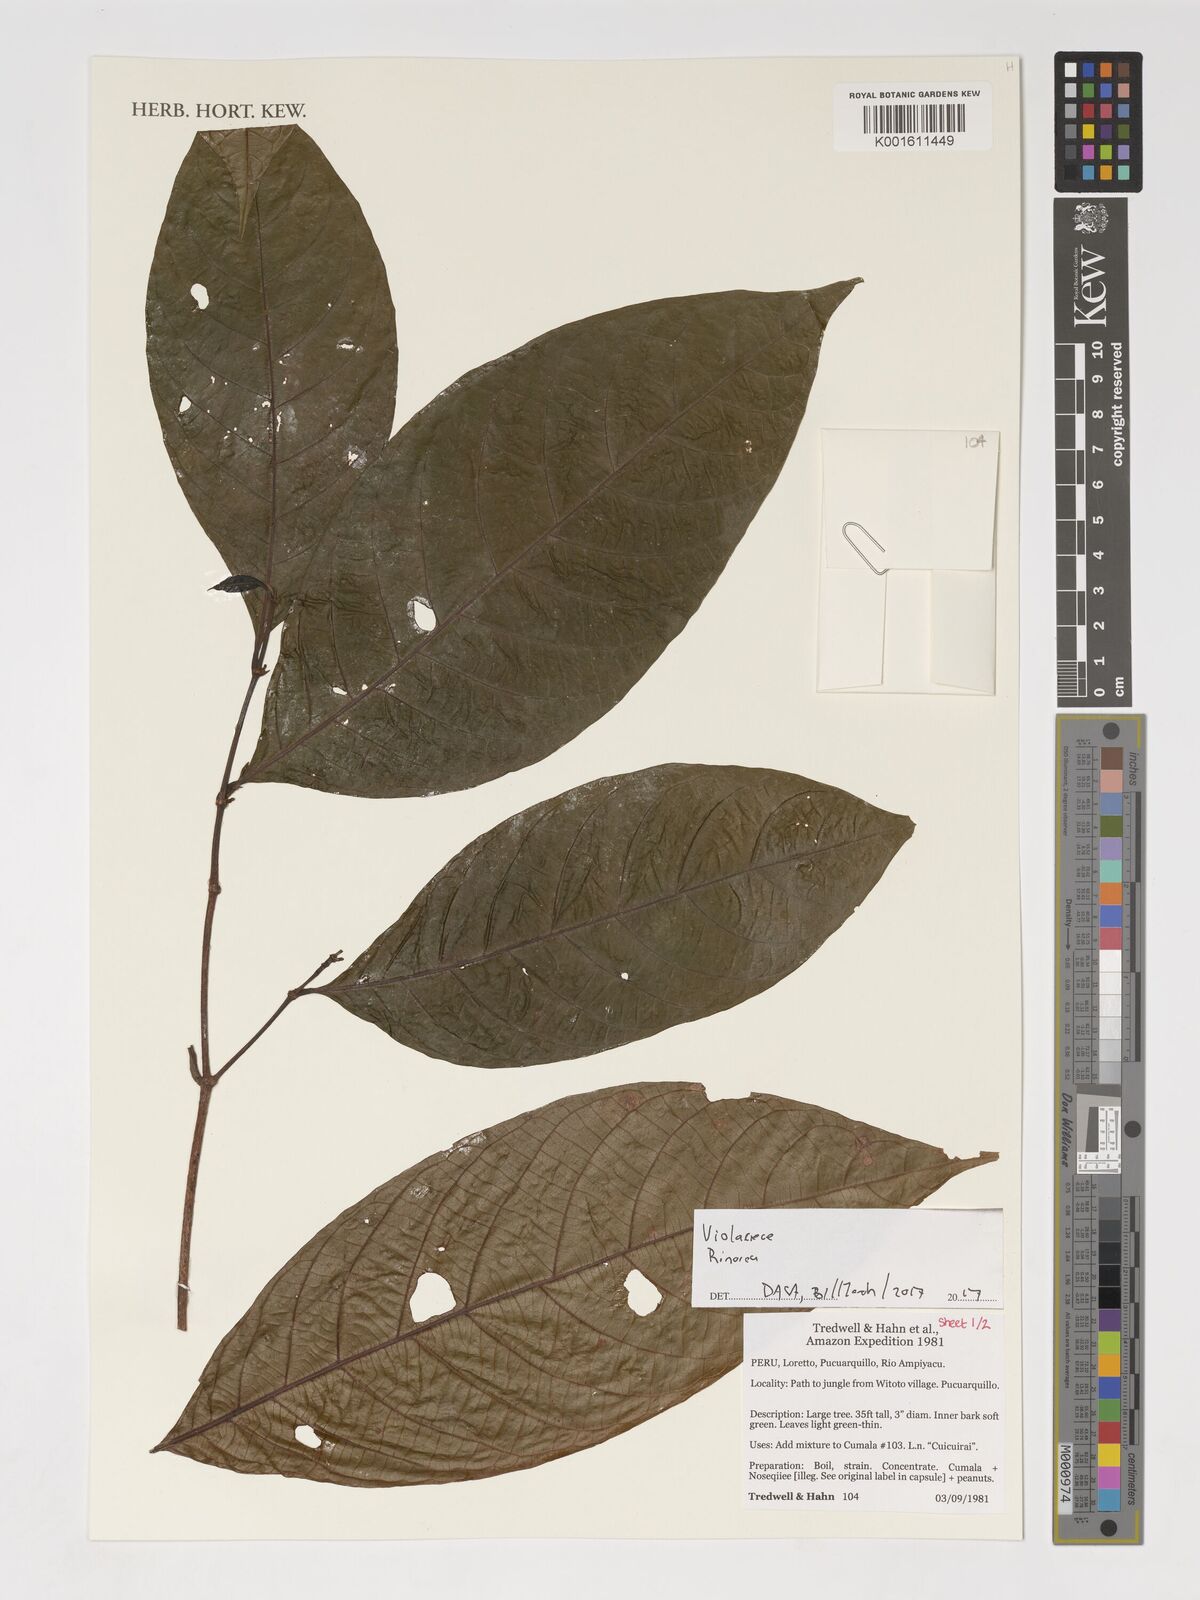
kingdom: Plantae
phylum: Tracheophyta
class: Magnoliopsida
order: Malpighiales
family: Violaceae
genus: Rinorea
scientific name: Rinorea
